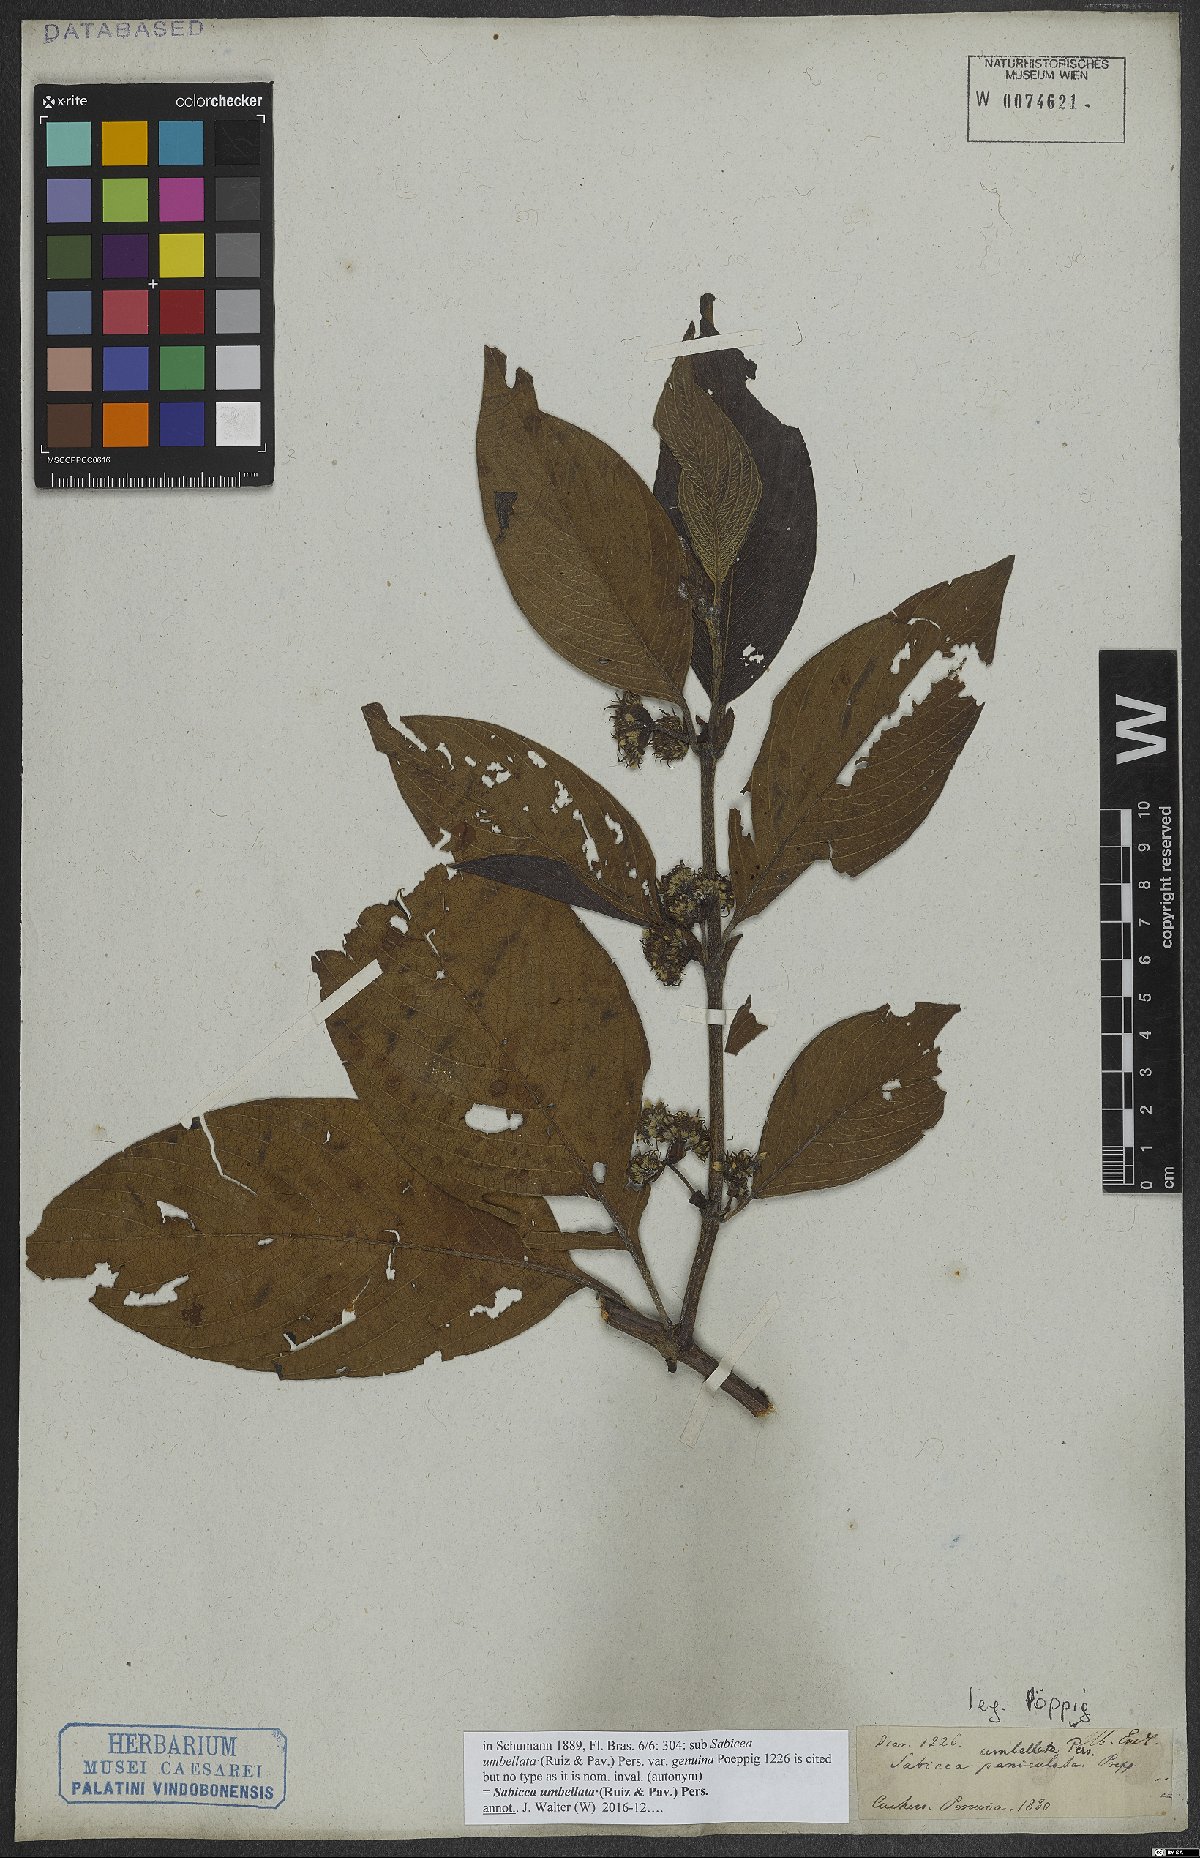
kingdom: Plantae
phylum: Tracheophyta
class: Magnoliopsida
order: Gentianales
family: Rubiaceae
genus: Sabicea
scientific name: Sabicea umbellata
